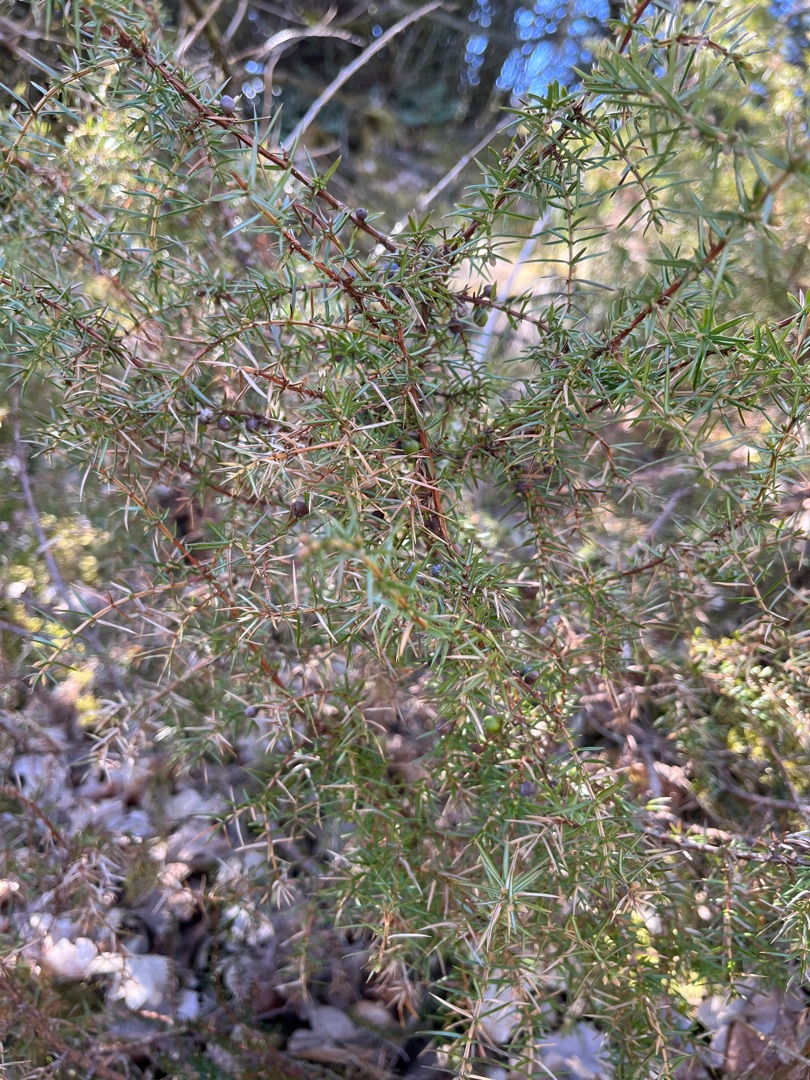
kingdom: Plantae
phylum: Tracheophyta
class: Pinopsida
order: Pinales
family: Cupressaceae
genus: Juniperus
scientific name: Juniperus communis
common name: Almindelig ene
